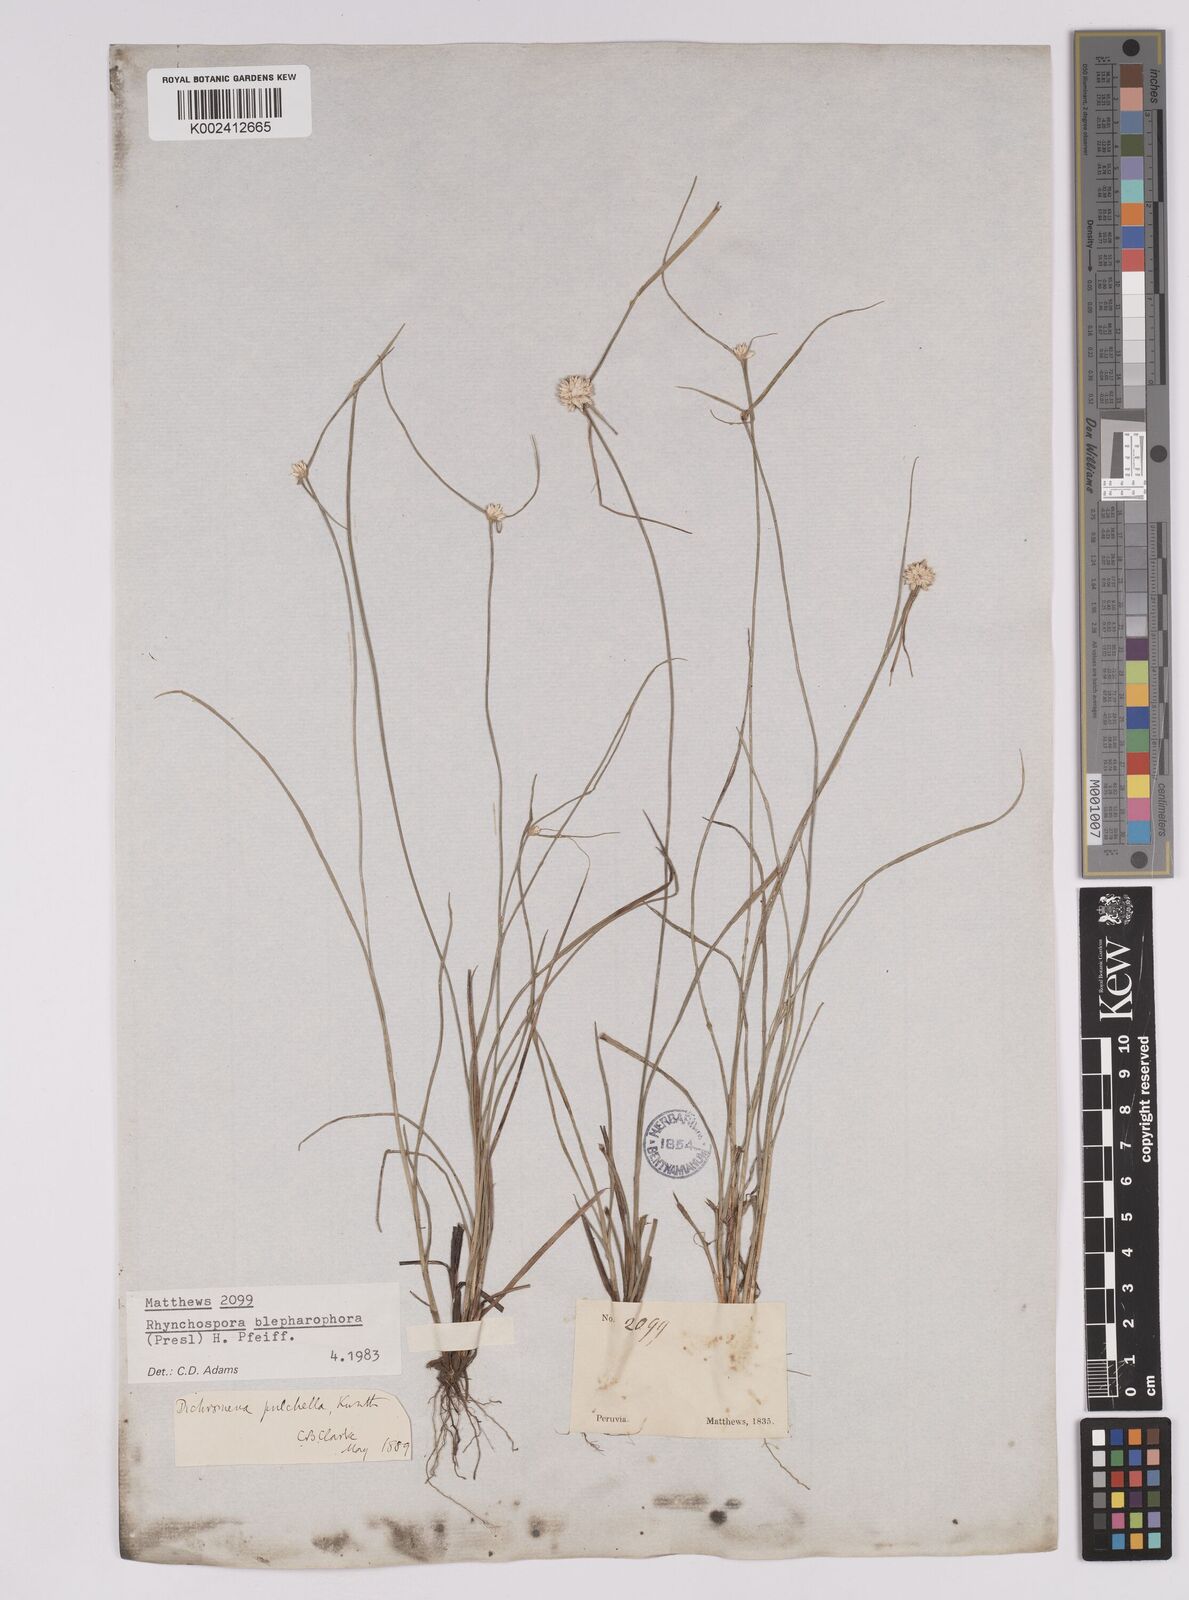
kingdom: Plantae
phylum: Tracheophyta
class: Liliopsida
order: Poales
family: Cyperaceae
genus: Rhynchospora
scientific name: Rhynchospora blepharophora
